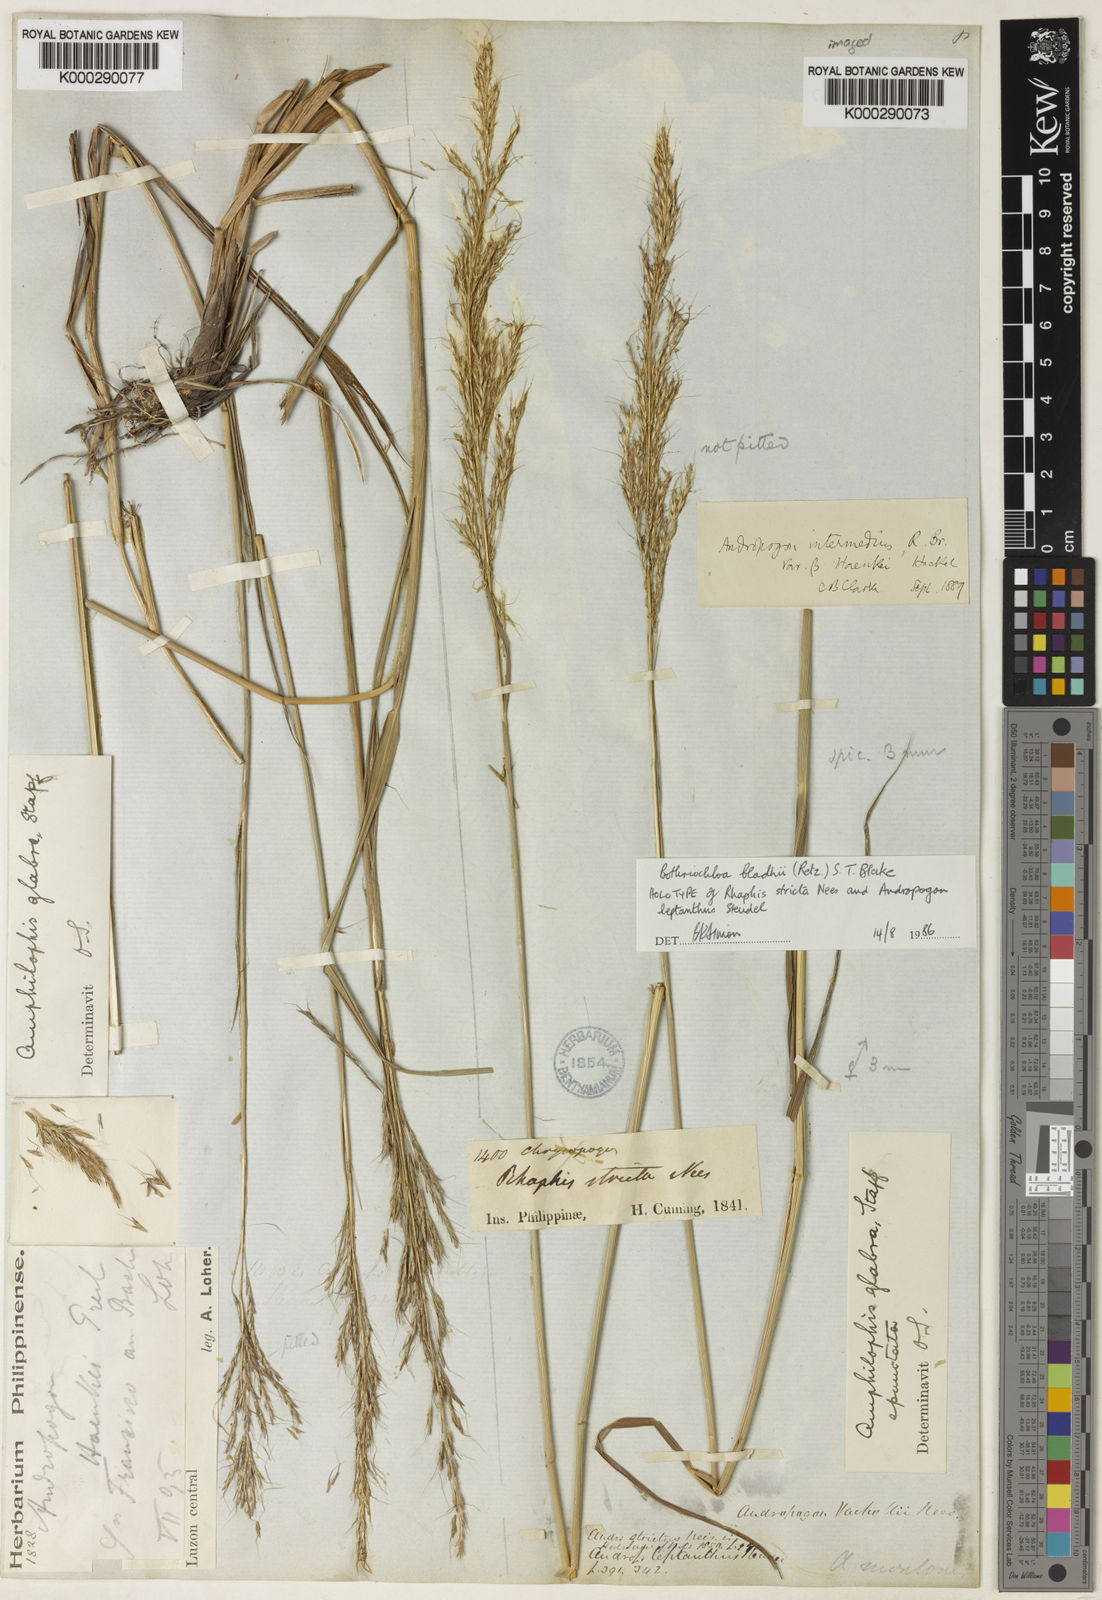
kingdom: Plantae
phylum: Tracheophyta
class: Liliopsida
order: Poales
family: Poaceae
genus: Bothriochloa
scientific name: Bothriochloa bladhii
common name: Caucasian bluestem
